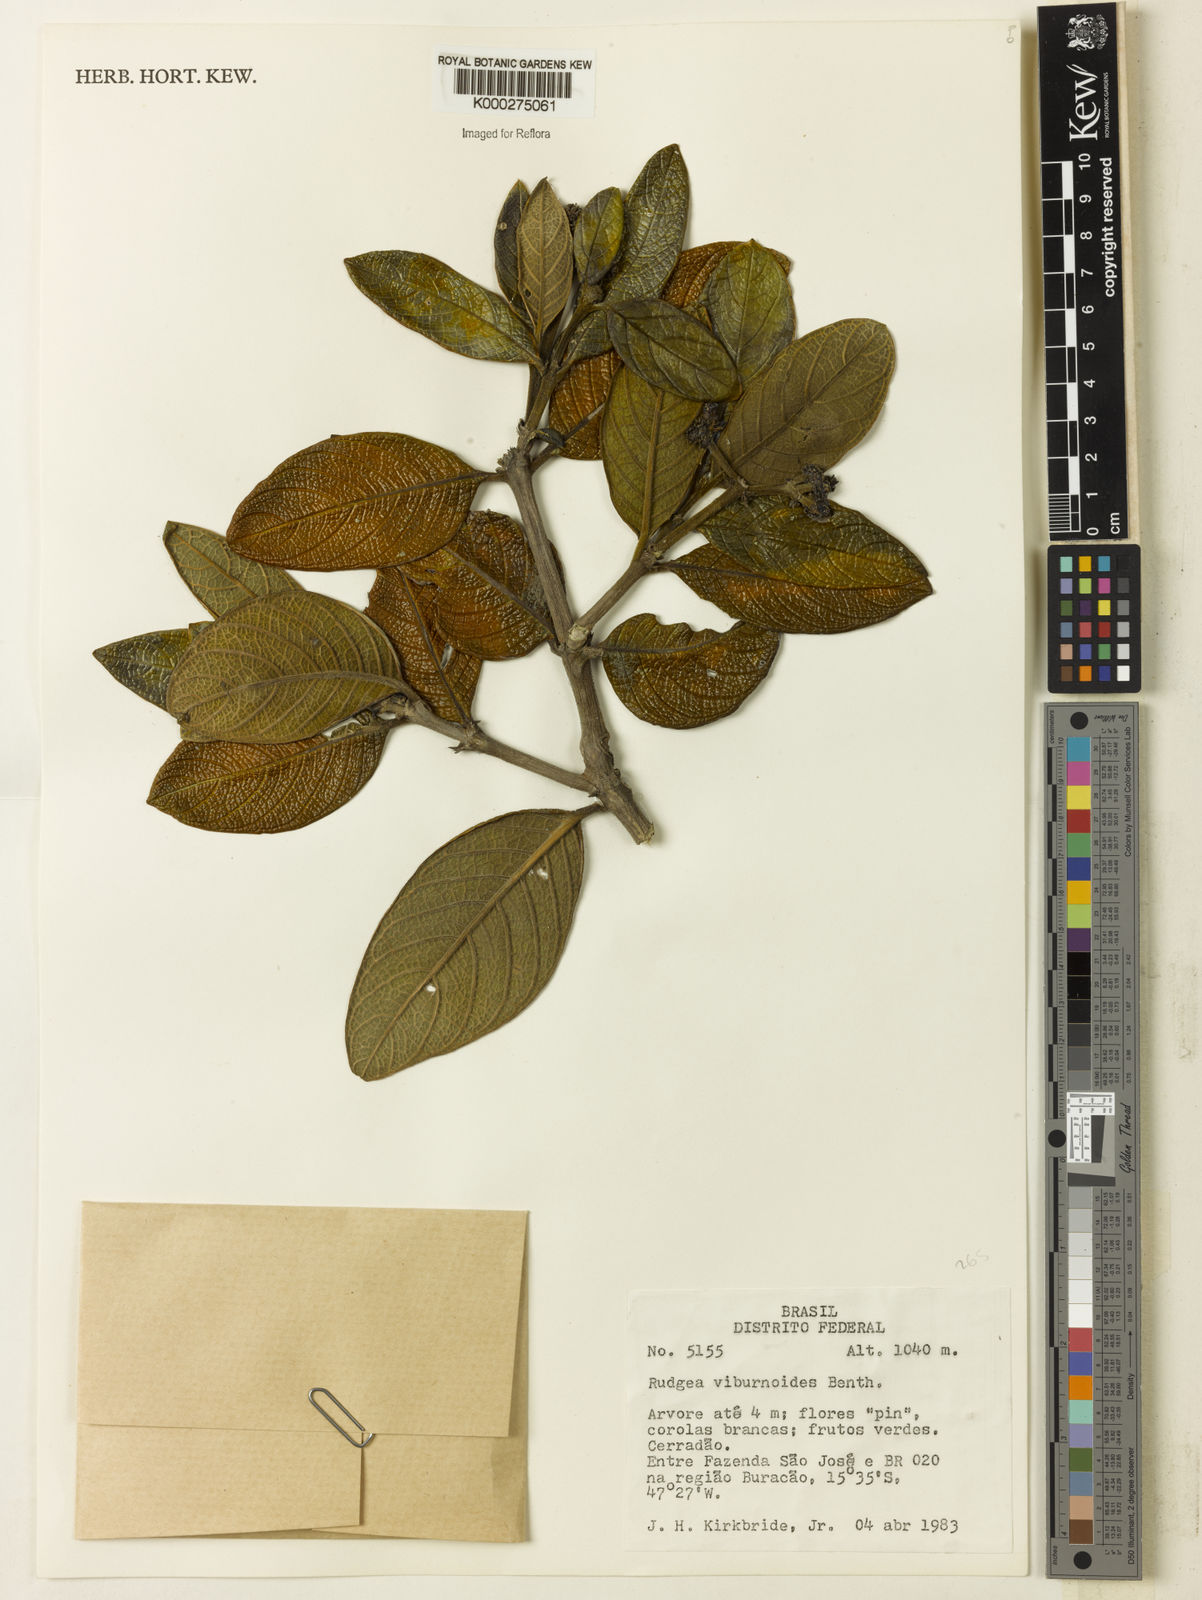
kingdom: Plantae
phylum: Tracheophyta
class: Magnoliopsida
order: Gentianales
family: Rubiaceae
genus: Rudgea
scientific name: Rudgea viburnoides
